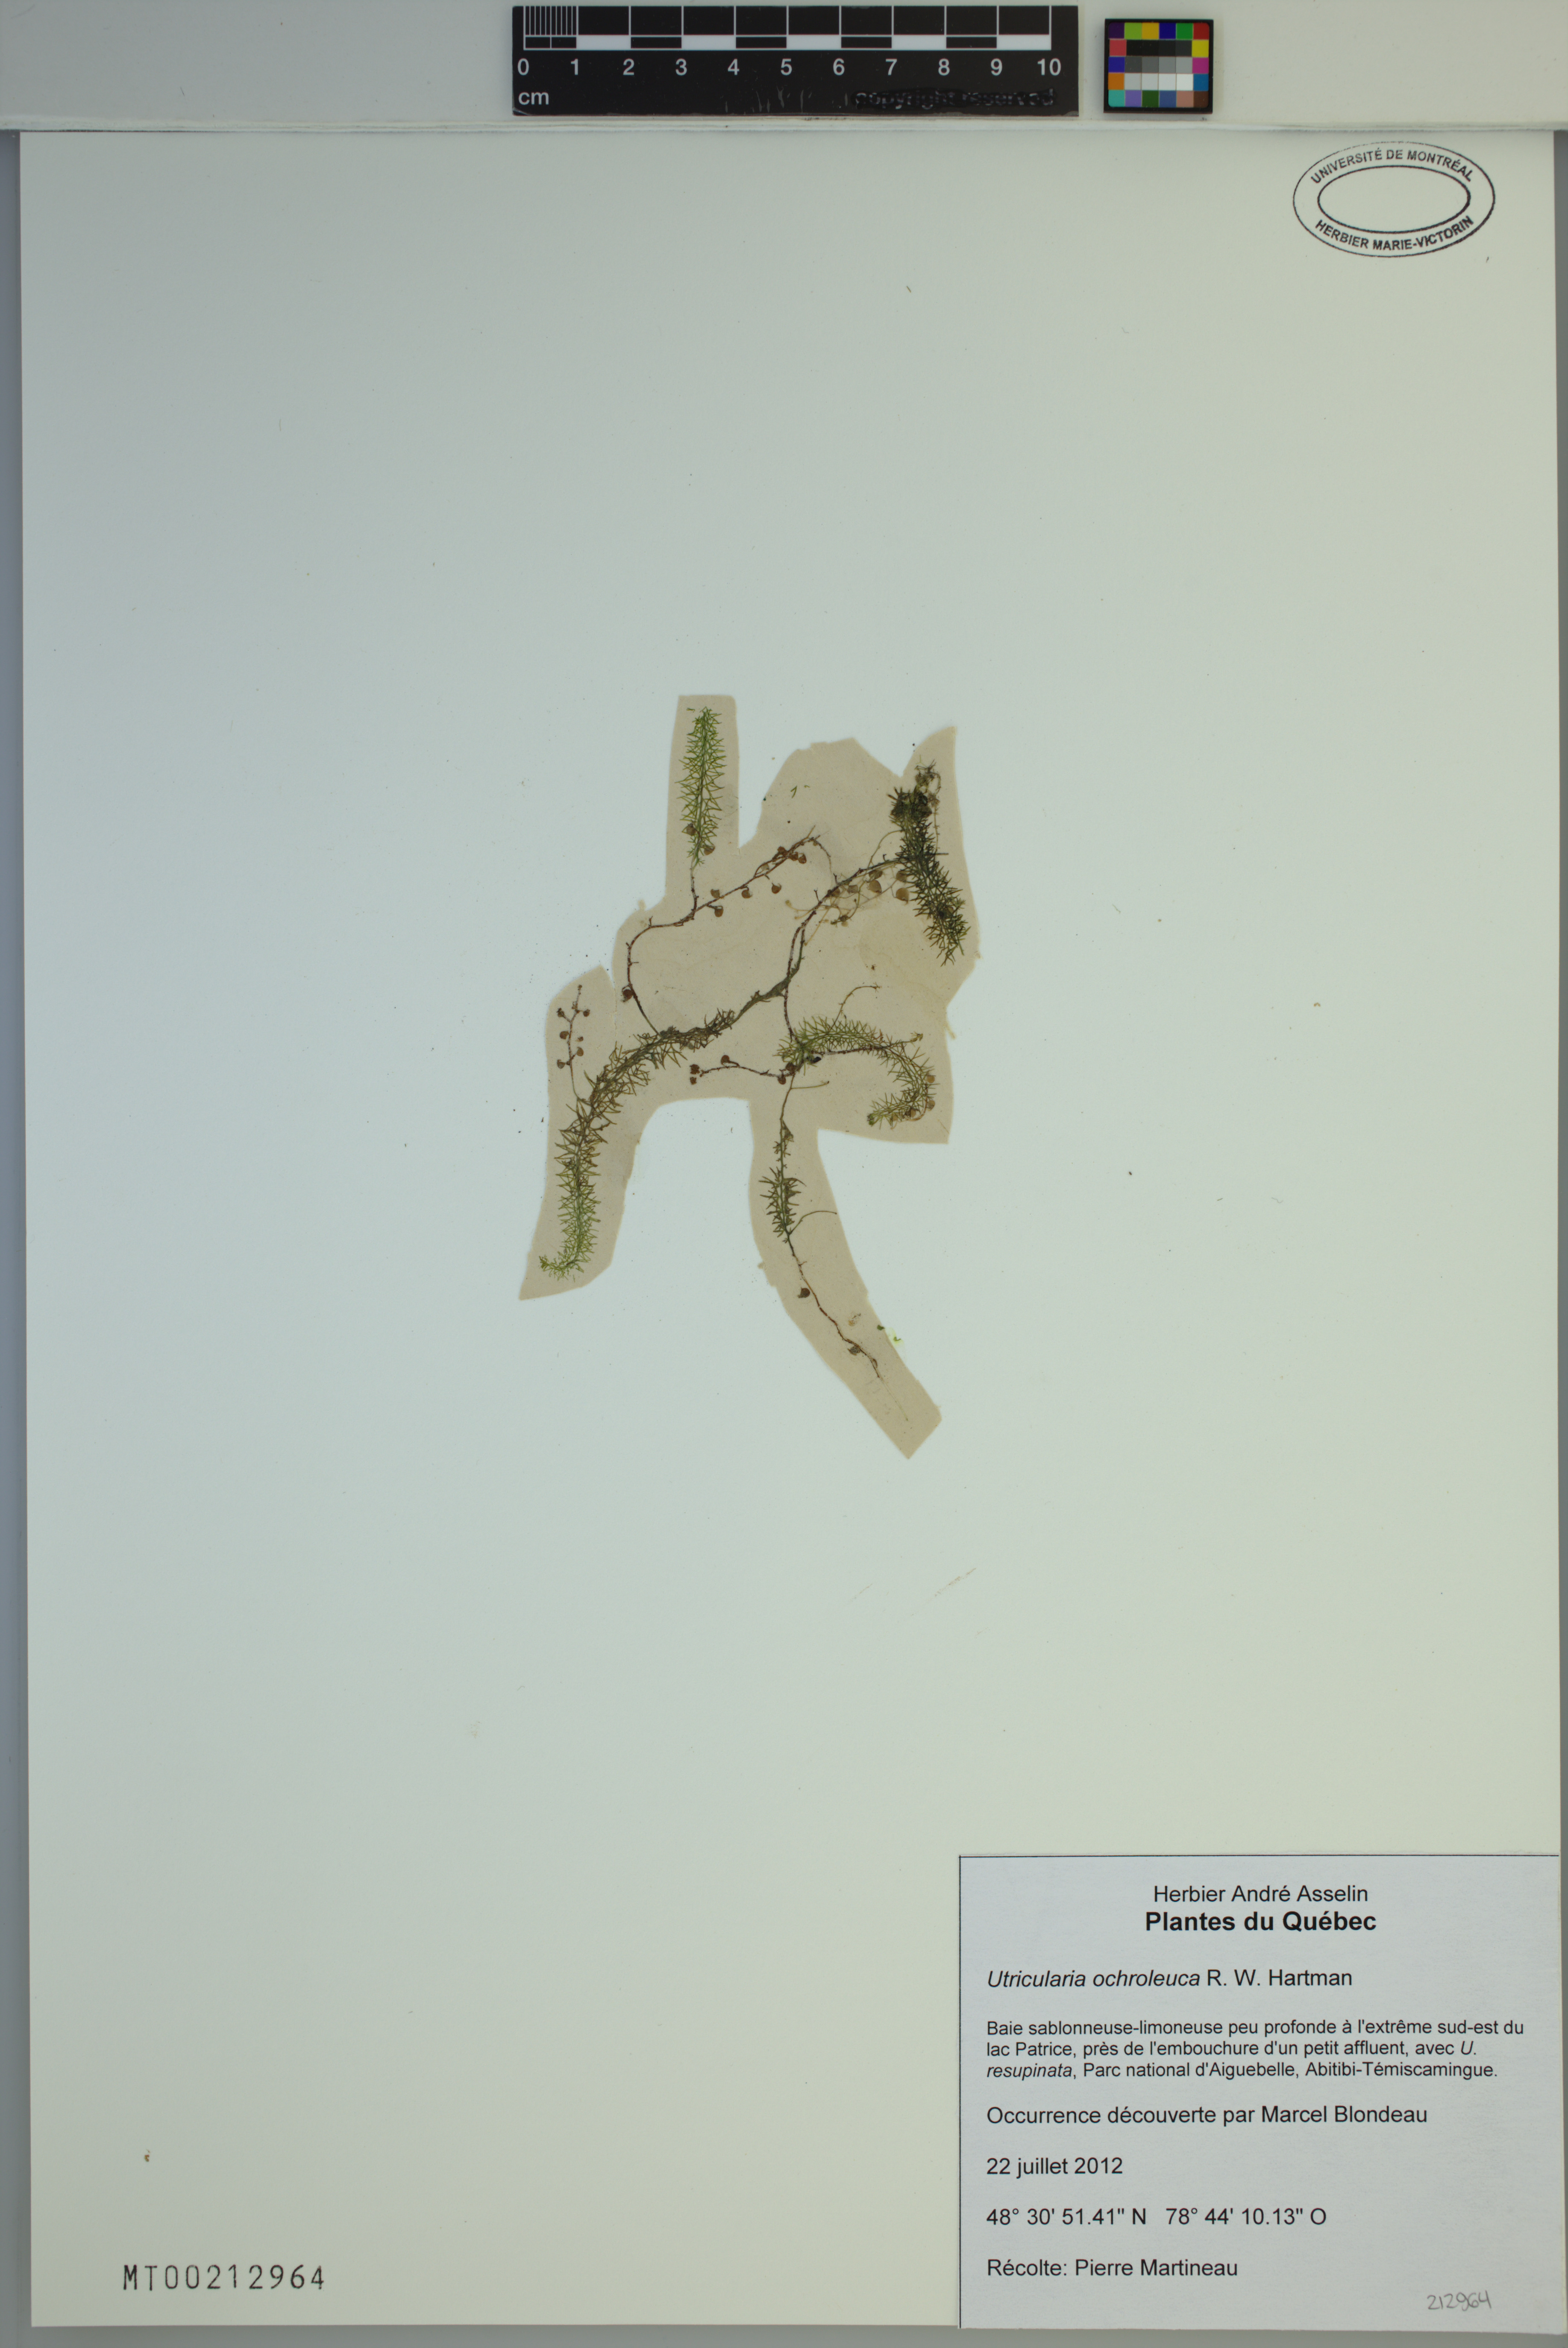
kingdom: Plantae
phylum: Tracheophyta
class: Magnoliopsida
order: Lamiales
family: Lentibulariaceae
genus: Utricularia
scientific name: Utricularia ochroleuca
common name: Pale bladderwort
